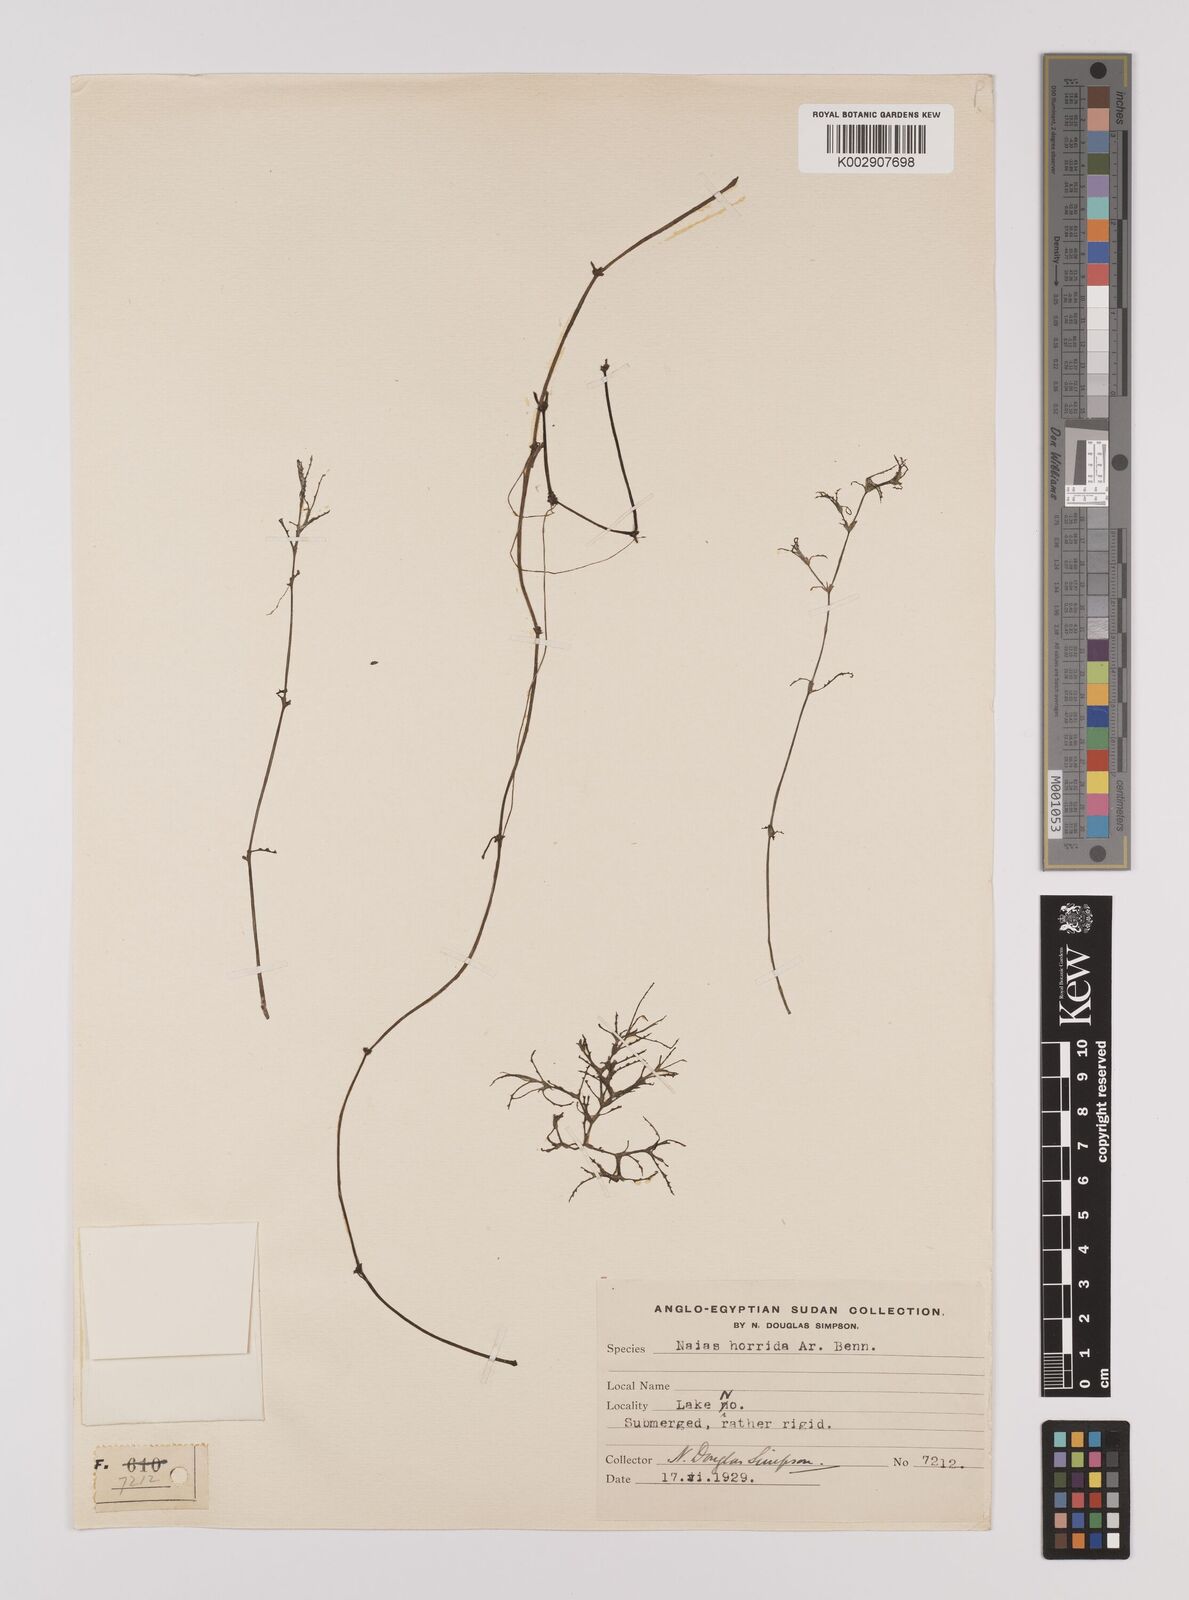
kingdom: Plantae
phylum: Tracheophyta
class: Liliopsida
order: Alismatales
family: Hydrocharitaceae
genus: Najas
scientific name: Najas horrida
